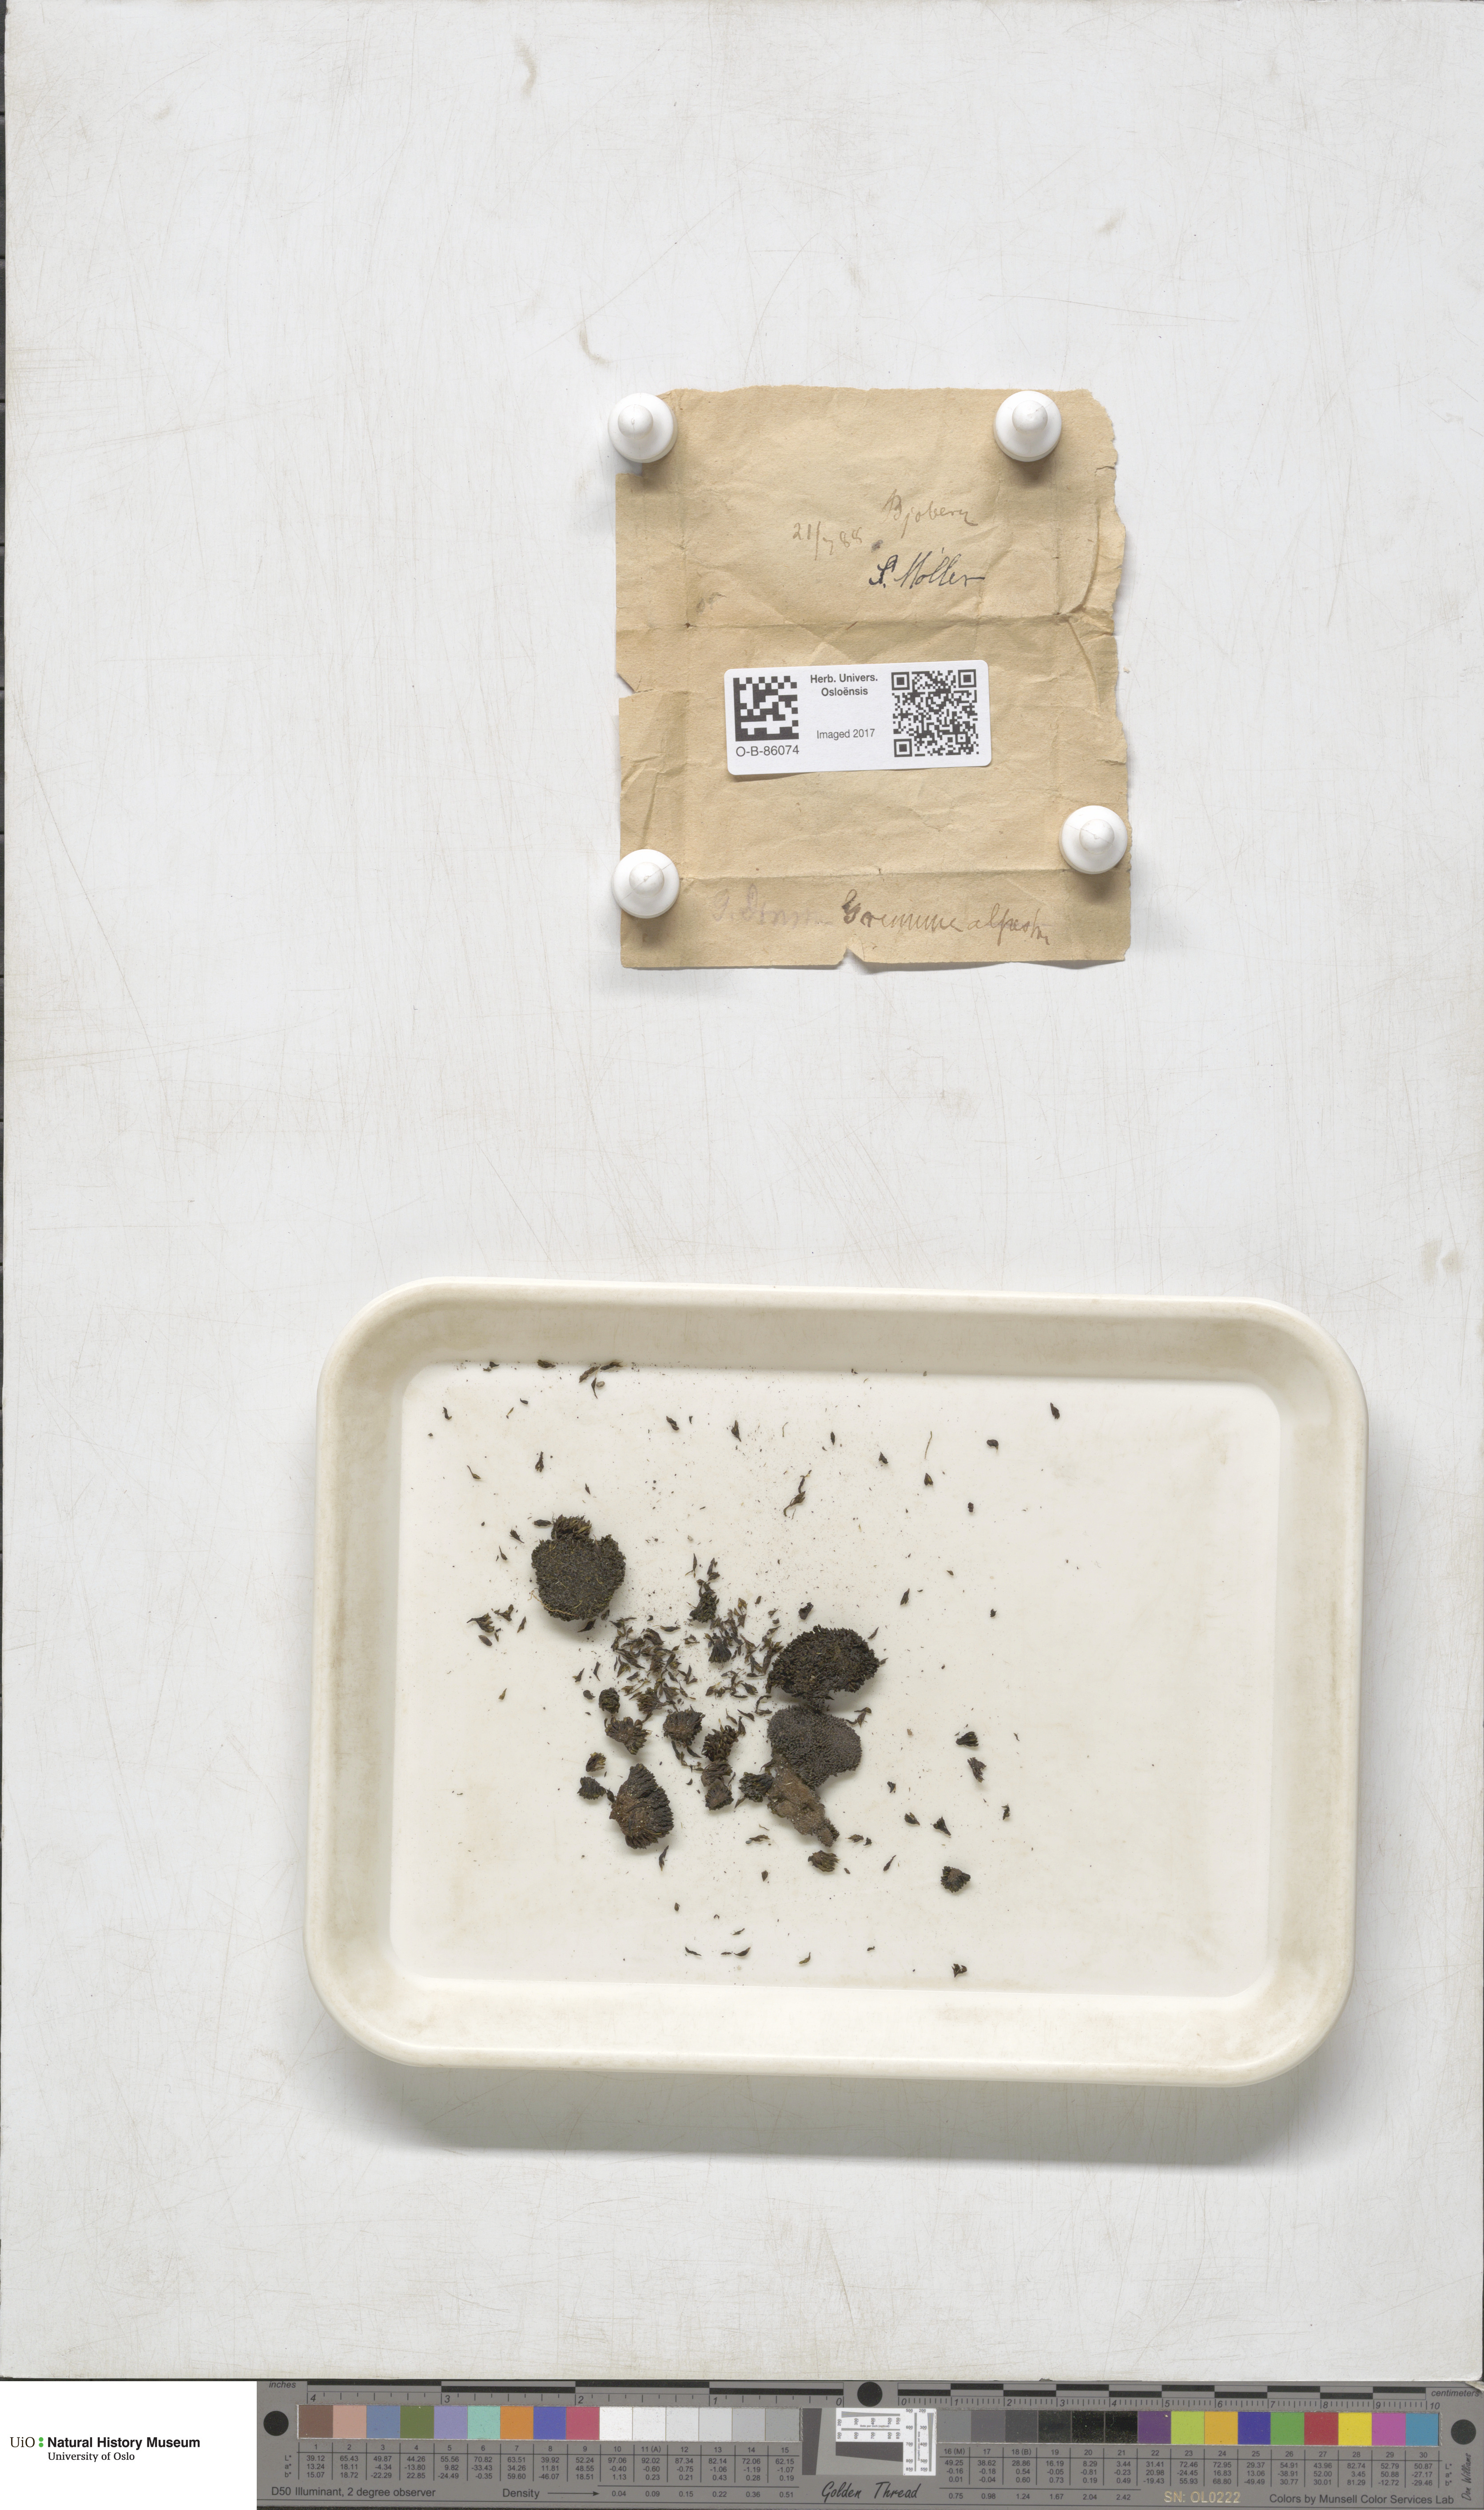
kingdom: Plantae
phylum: Bryophyta
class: Bryopsida
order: Grimmiales
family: Grimmiaceae
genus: Grimmia
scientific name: Grimmia alpestris
